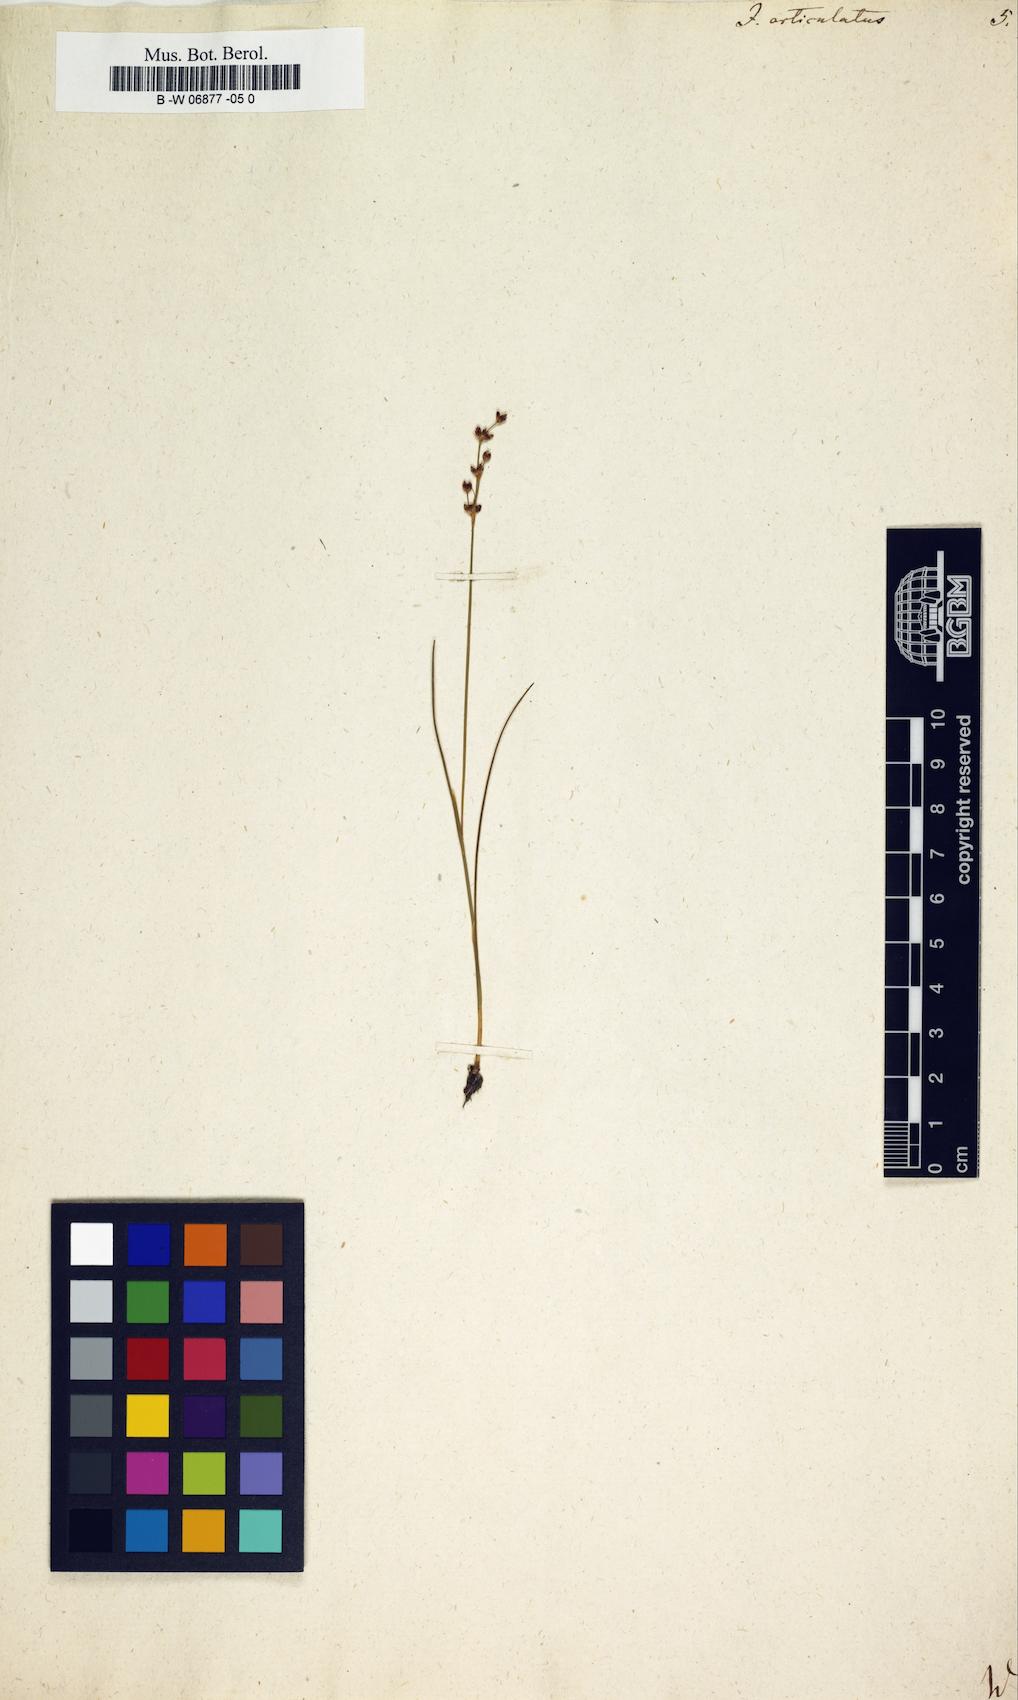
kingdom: Plantae
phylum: Tracheophyta
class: Liliopsida
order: Poales
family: Juncaceae
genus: Juncus
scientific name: Juncus articulatus
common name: Jointed rush
